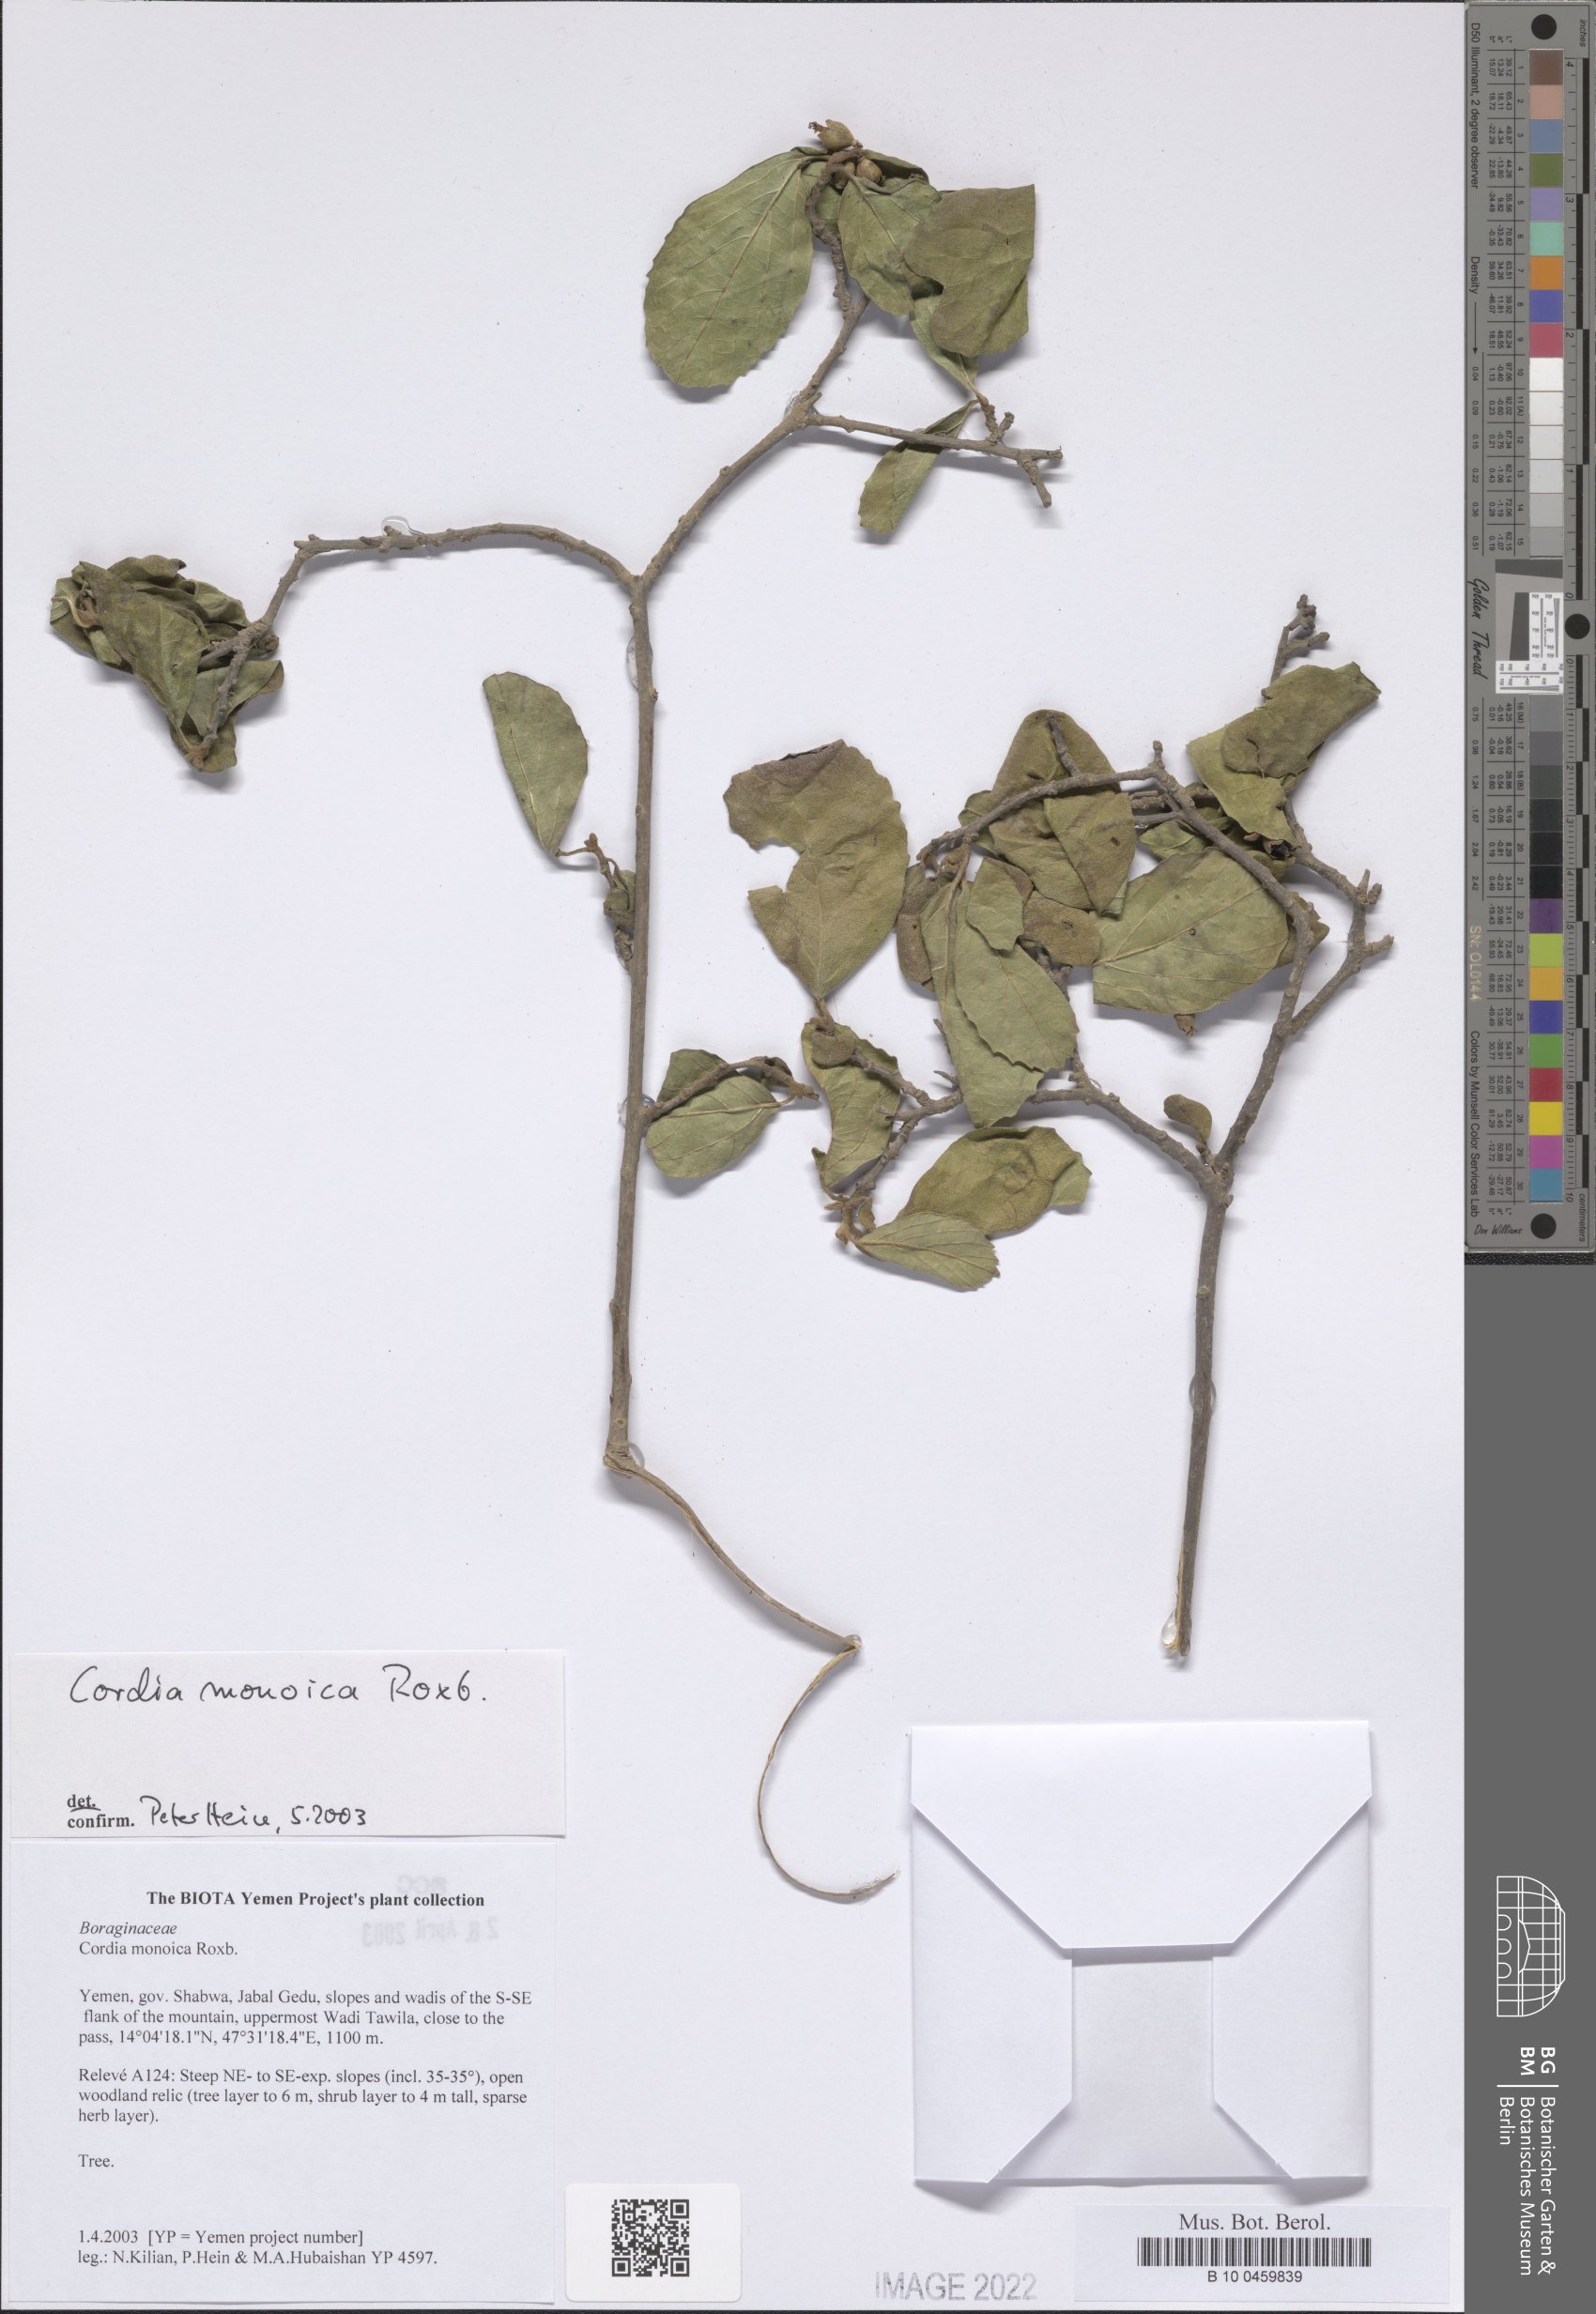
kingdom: Plantae
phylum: Tracheophyta
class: Magnoliopsida
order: Boraginales
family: Cordiaceae
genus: Cordia
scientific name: Cordia monoica
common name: Snot berry
